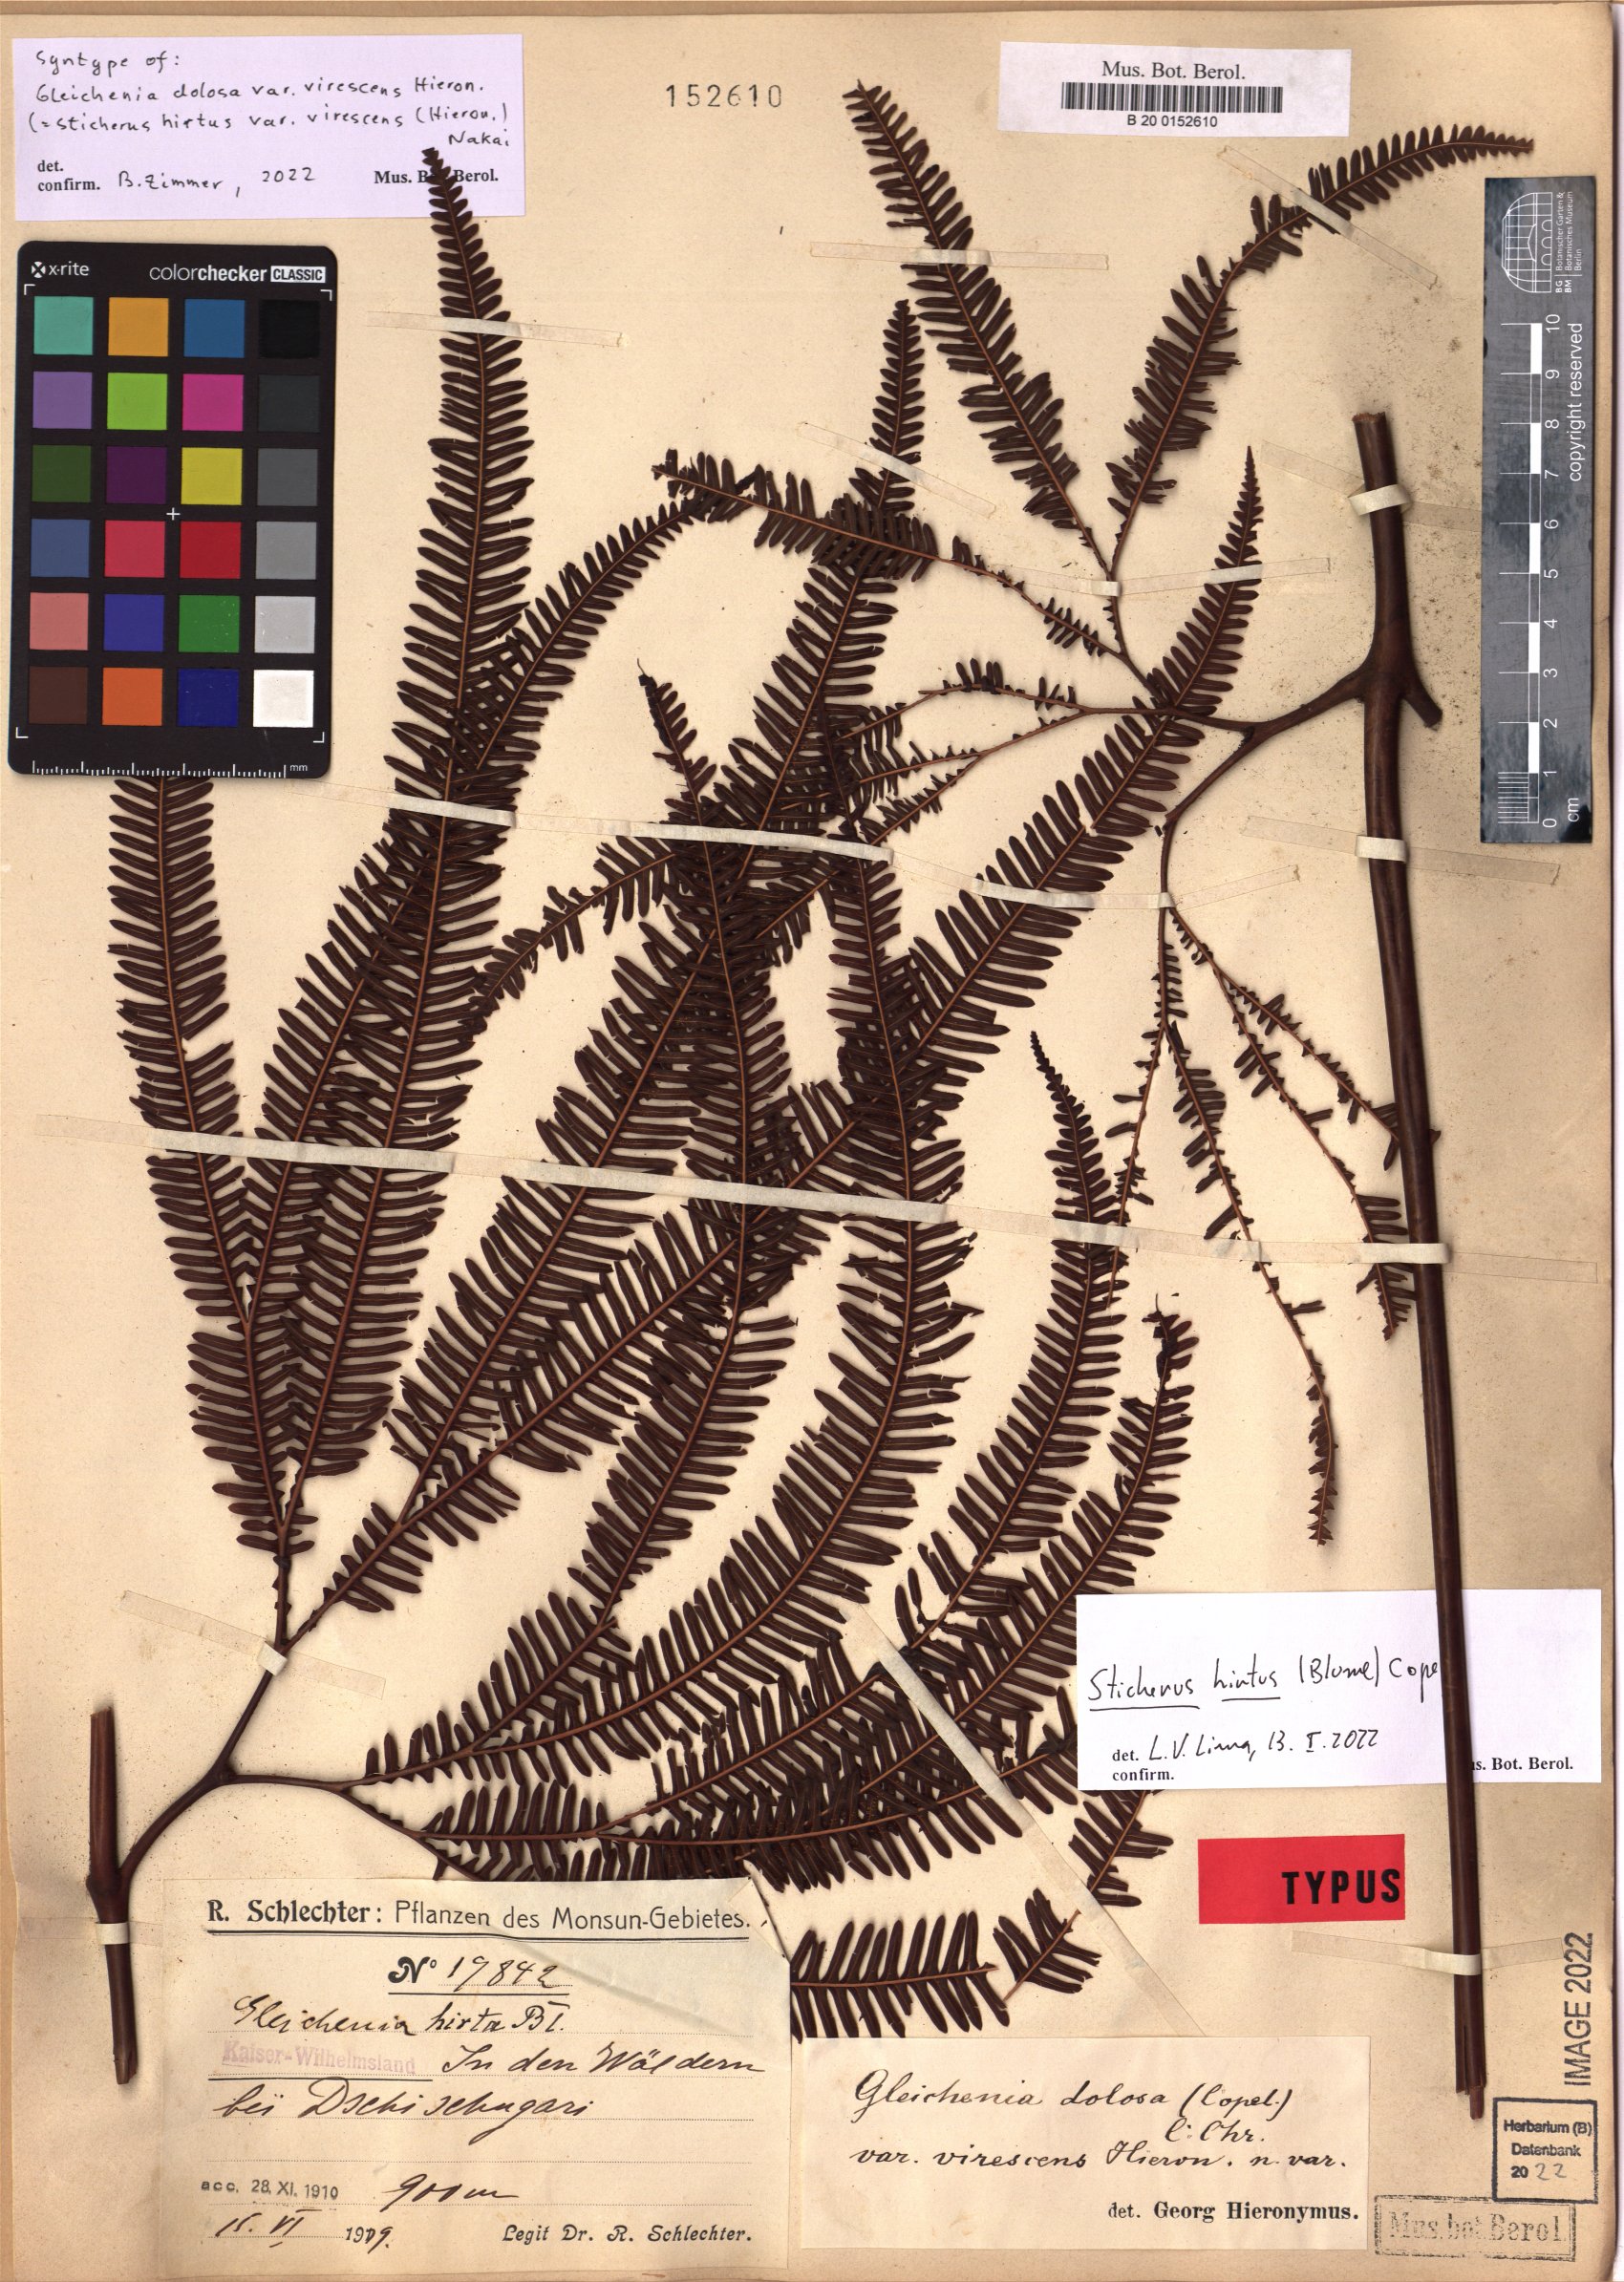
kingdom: Plantae
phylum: Tracheophyta
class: Polypodiopsida
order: Gleicheniales
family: Gleicheniaceae
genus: Sticherus
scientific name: Sticherus hirtus
